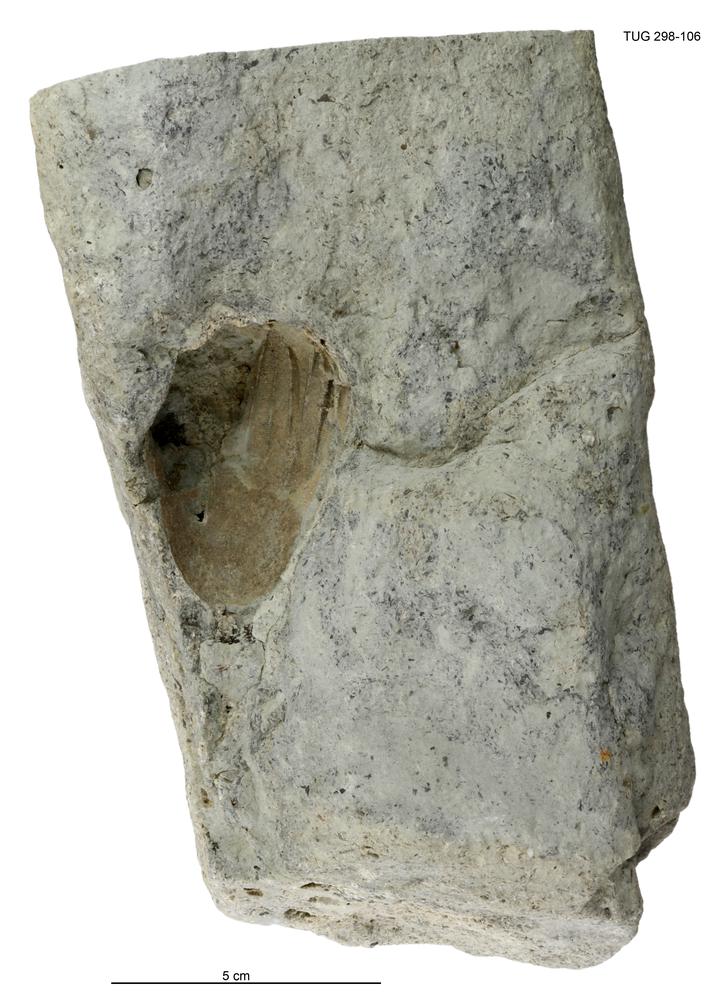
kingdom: Animalia
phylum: Echinodermata
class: Crinoidea
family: Eucalyptocrinitidae
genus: Eucalyptocrinites
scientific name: Eucalyptocrinites
